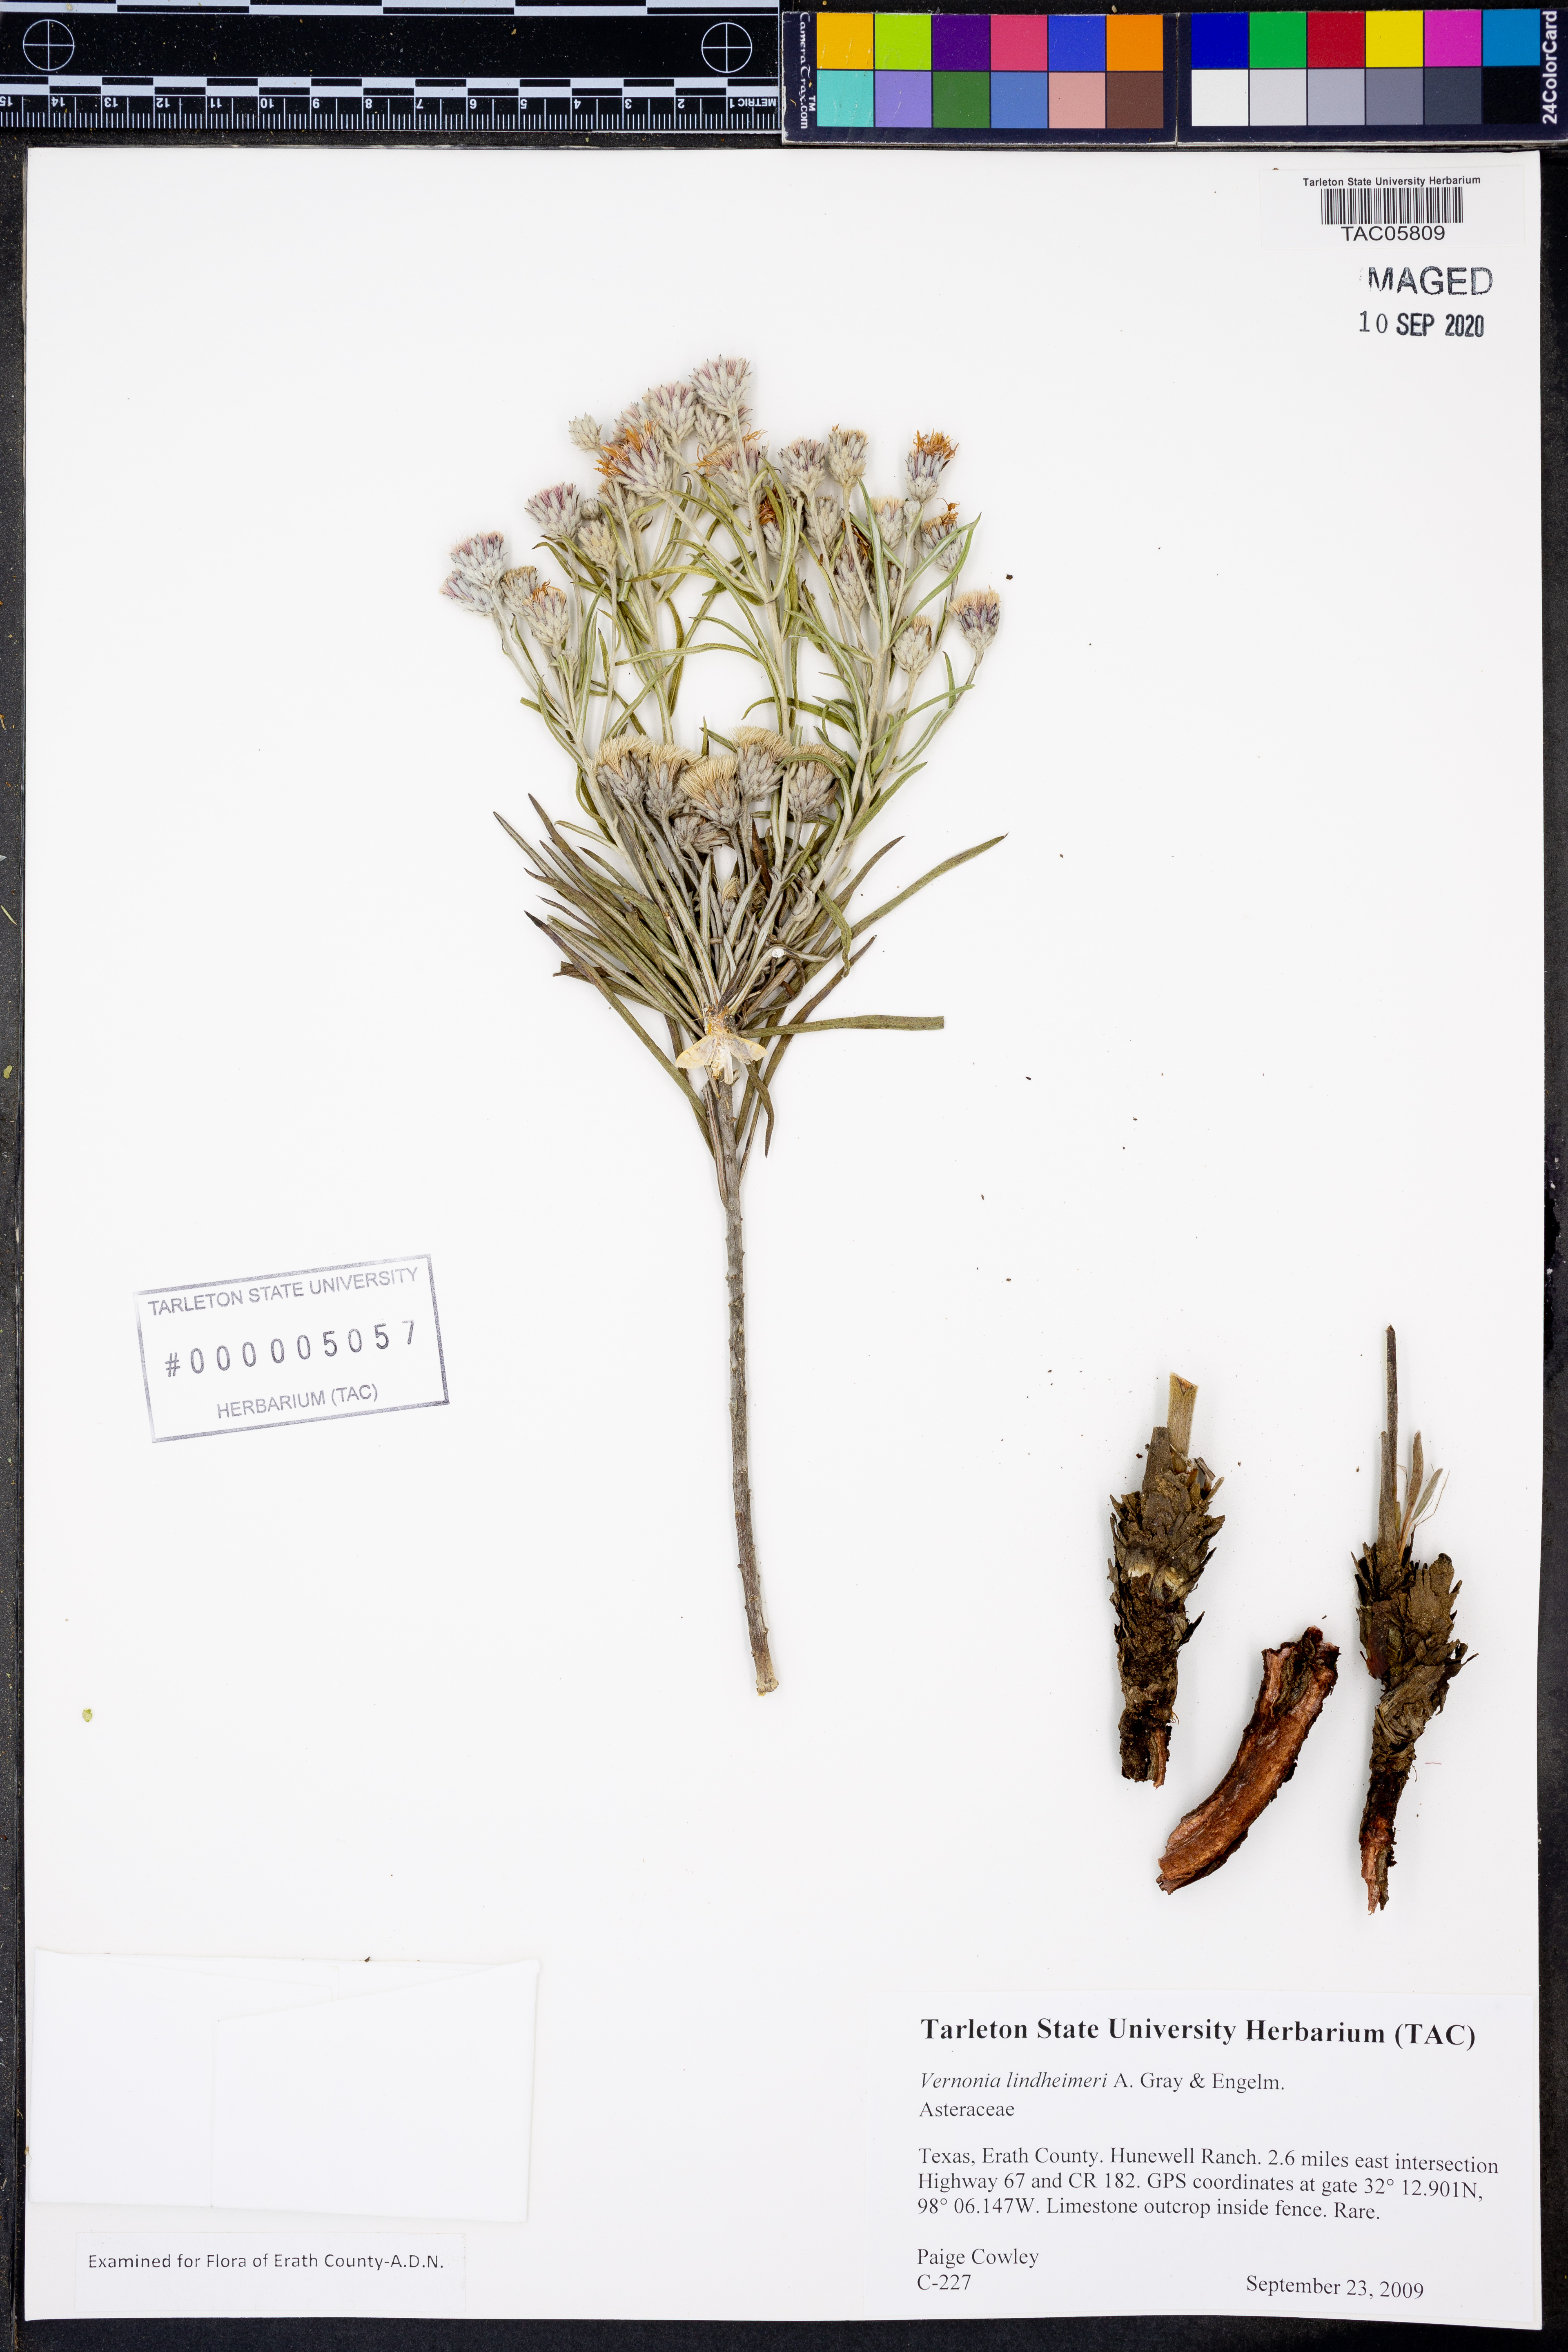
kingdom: Plantae
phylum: Tracheophyta
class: Magnoliopsida
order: Asterales
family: Asteraceae
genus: Vernonia
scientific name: Vernonia lindheimeri
